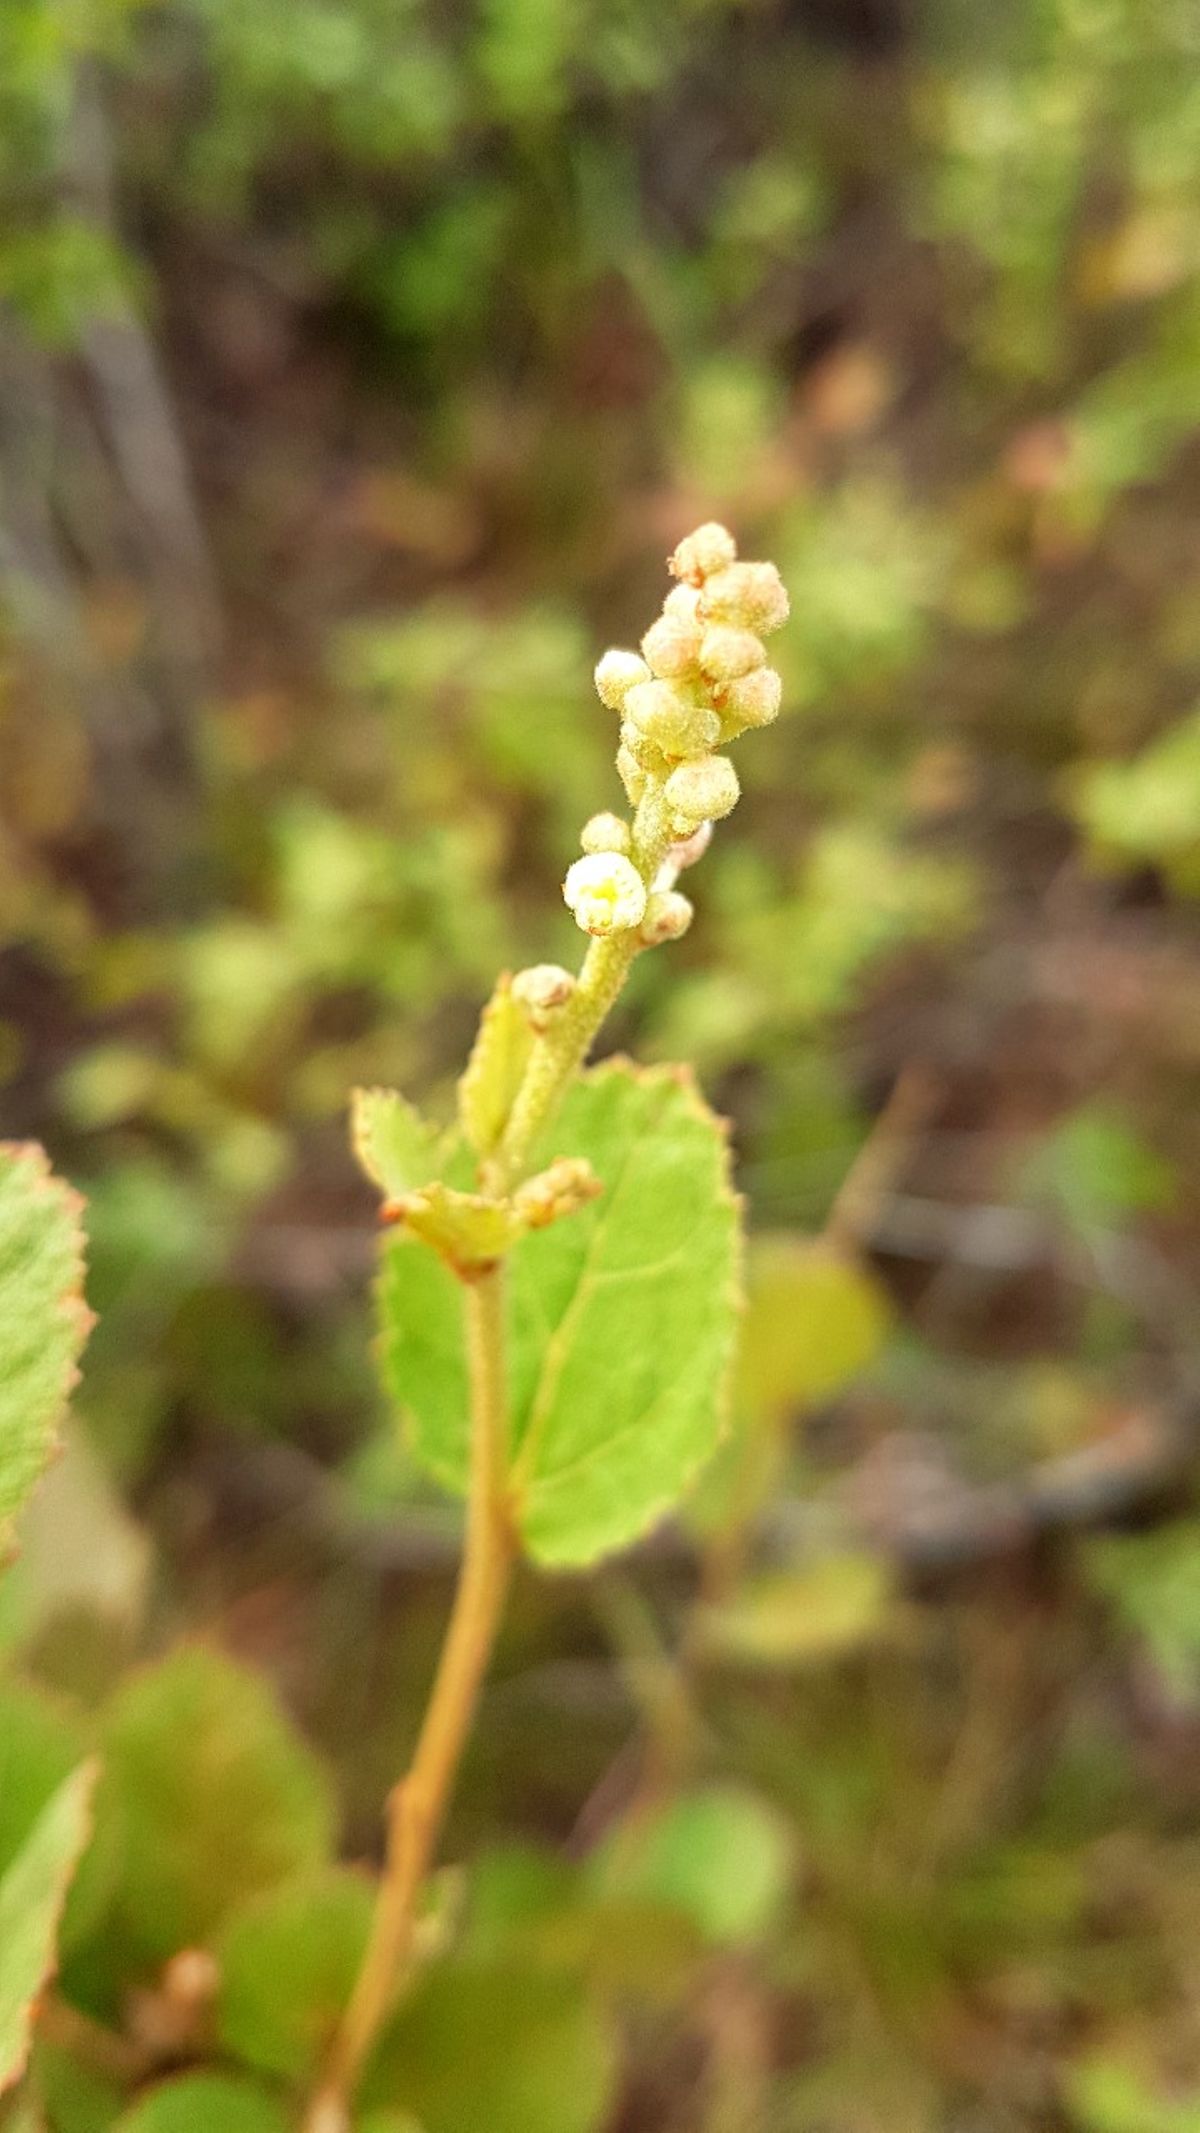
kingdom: Plantae
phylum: Tracheophyta
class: Magnoliopsida
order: Malpighiales
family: Euphorbiaceae
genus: Croton
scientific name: Croton repens
